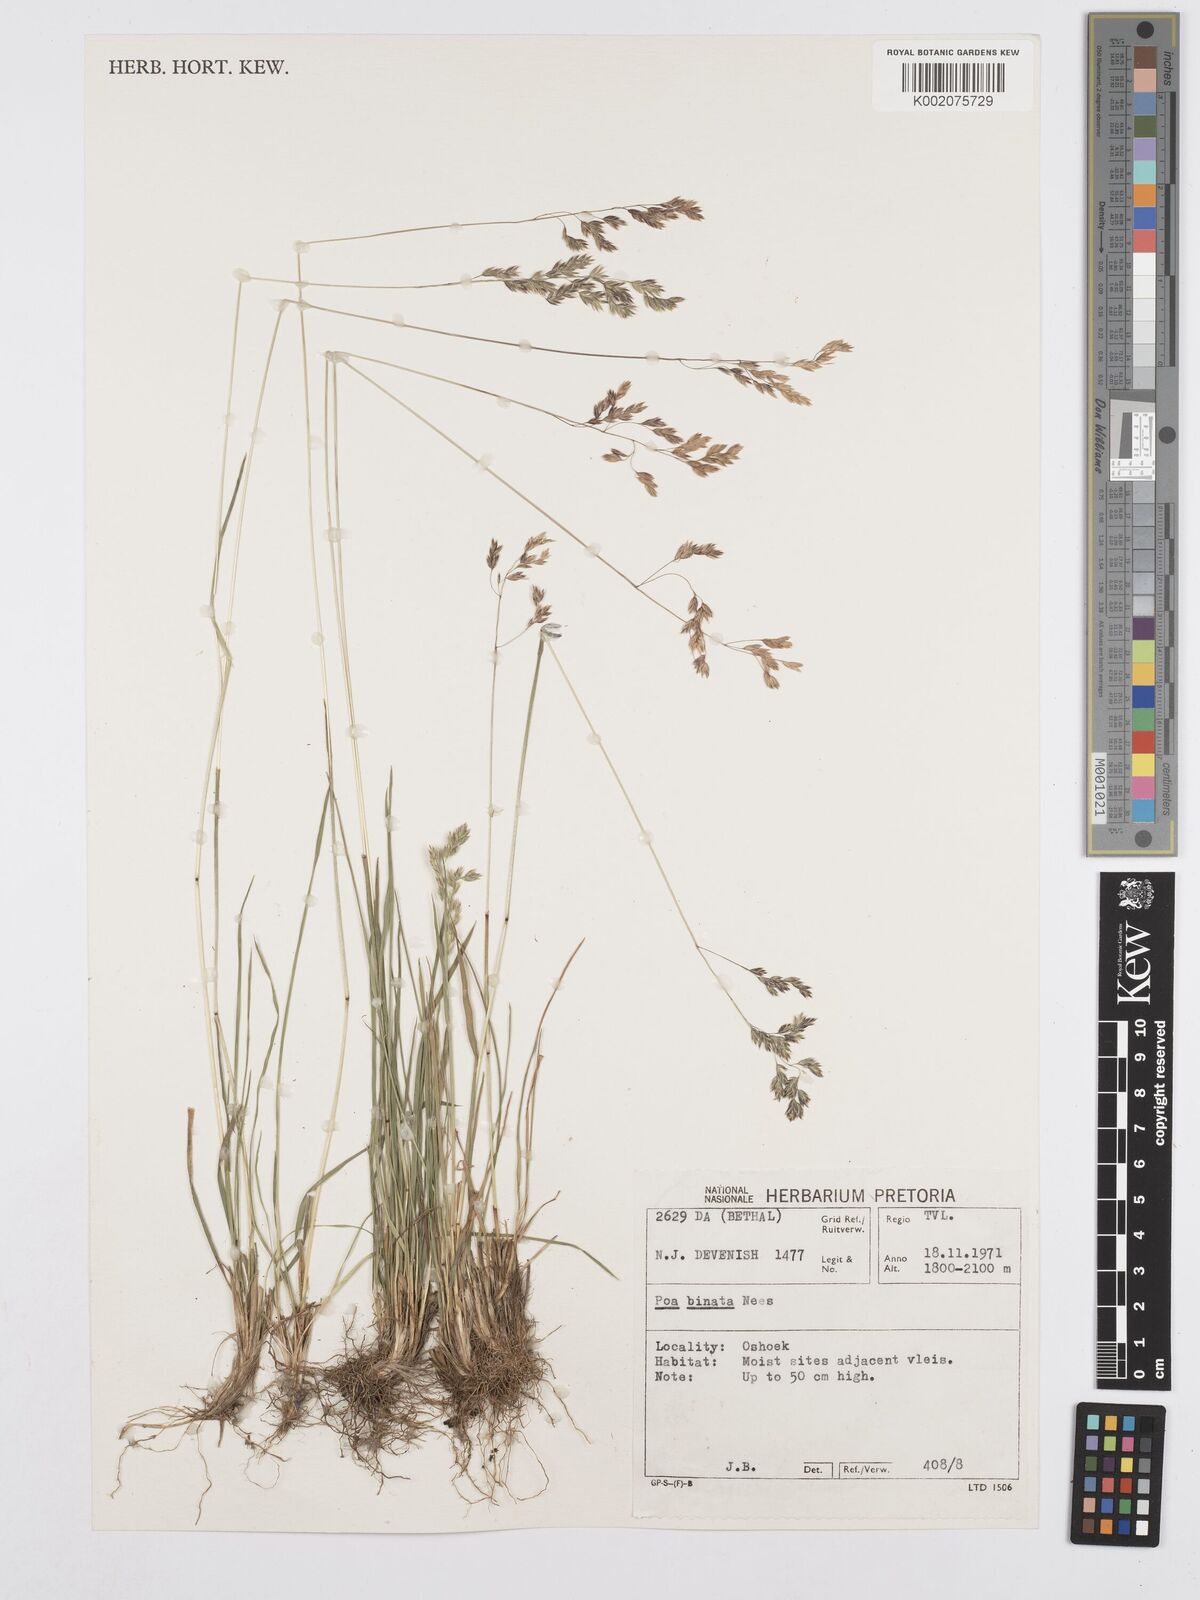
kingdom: Plantae
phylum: Tracheophyta
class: Liliopsida
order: Poales
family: Poaceae
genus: Poa
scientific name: Poa binata
